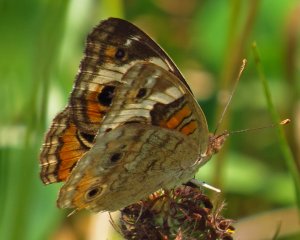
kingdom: Animalia
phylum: Arthropoda
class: Insecta
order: Lepidoptera
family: Nymphalidae
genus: Junonia
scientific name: Junonia coenia
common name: Common Buckeye
